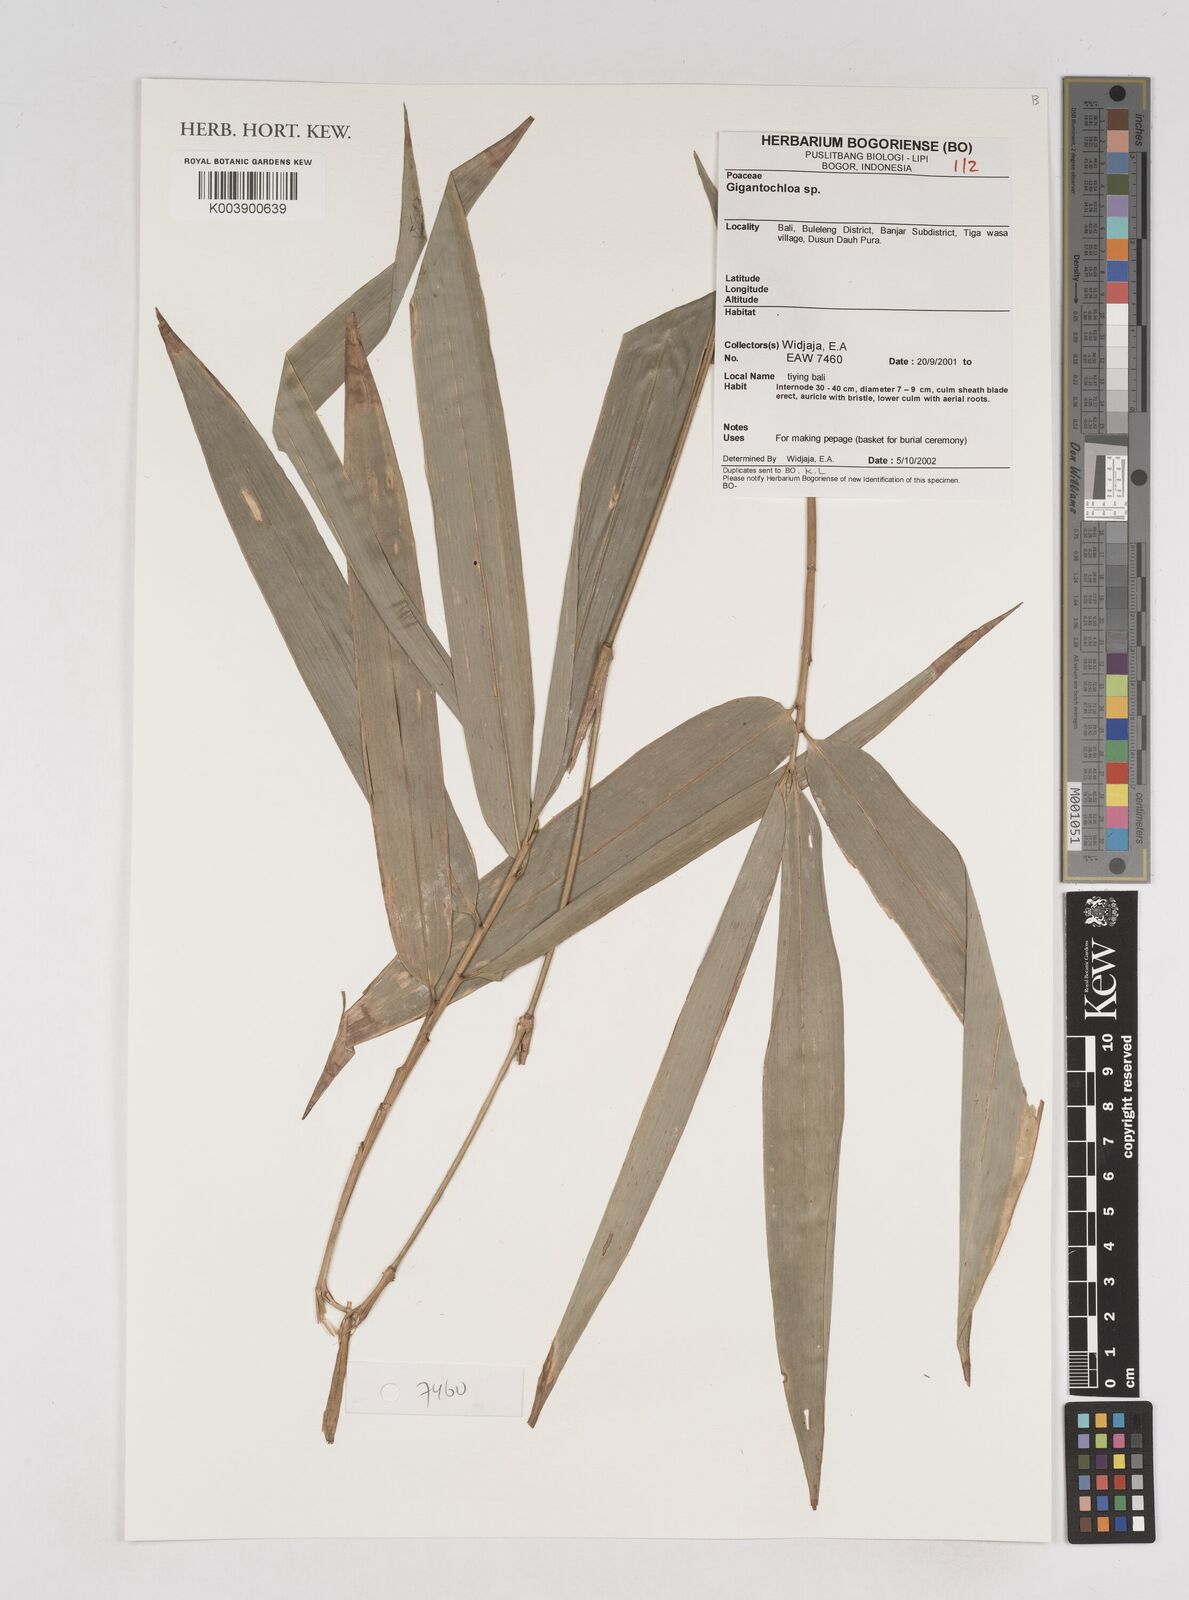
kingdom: Plantae
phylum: Tracheophyta
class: Liliopsida
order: Poales
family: Poaceae
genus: Gigantochloa
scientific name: Gigantochloa
